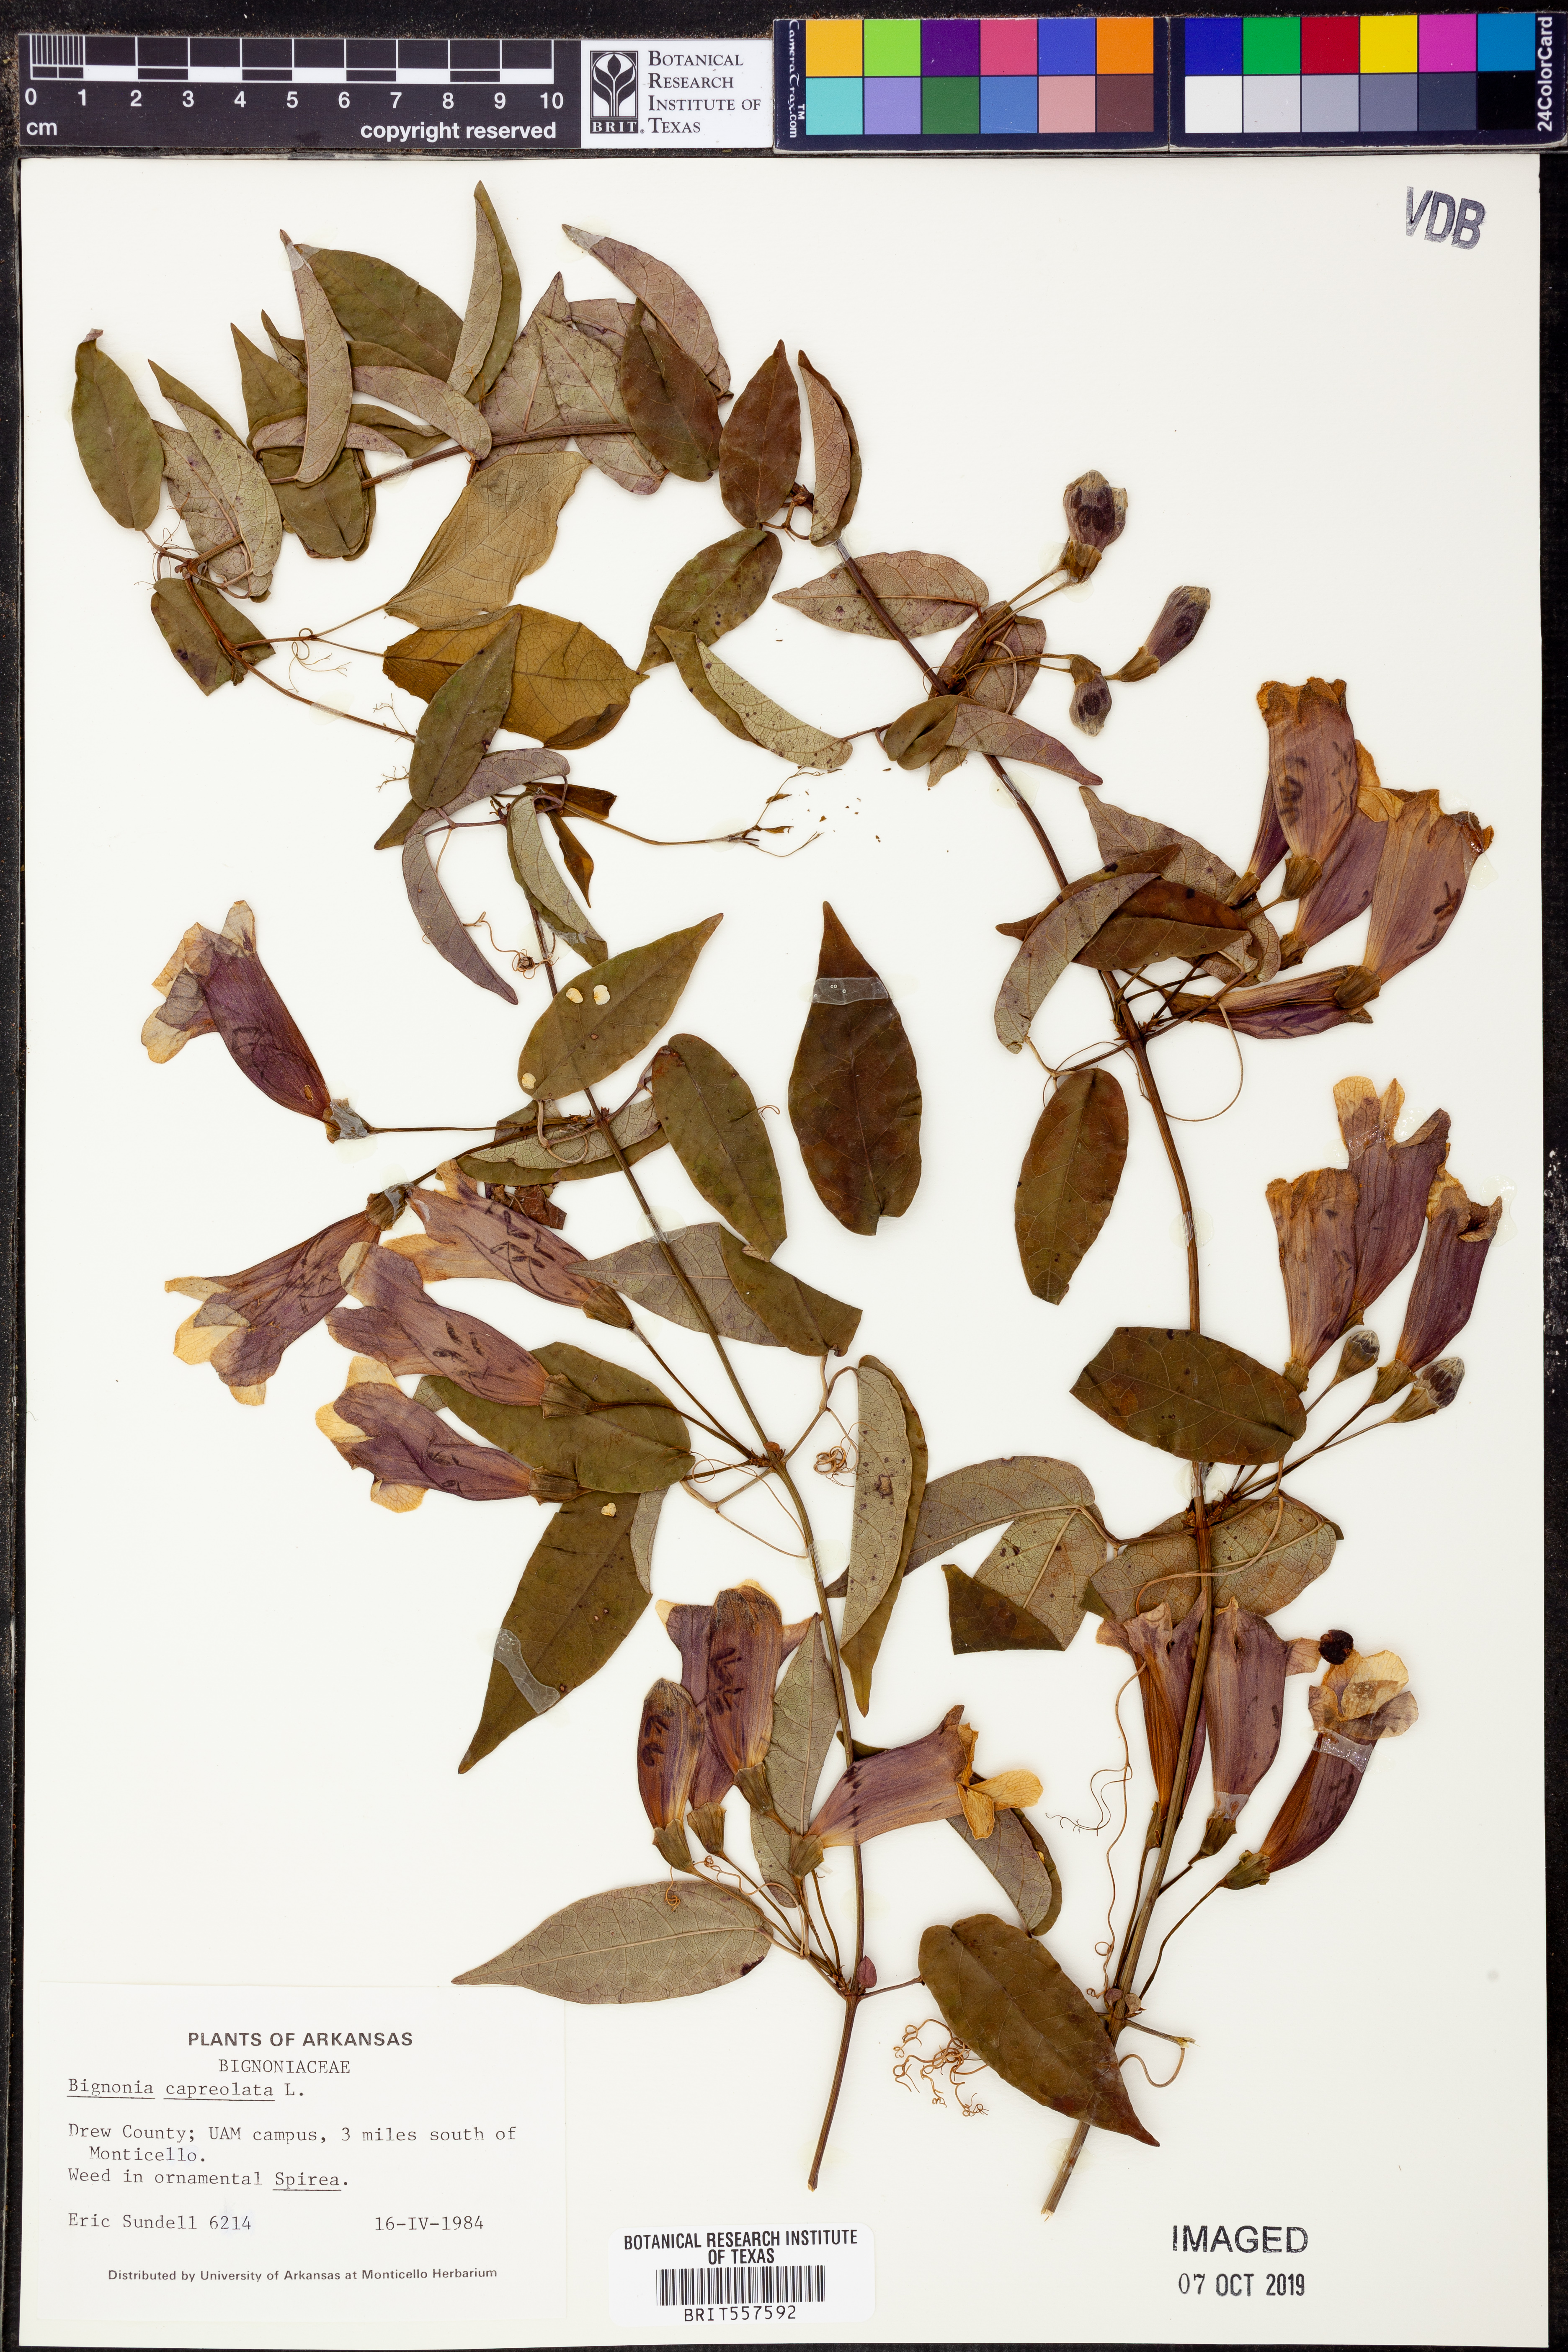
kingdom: Plantae
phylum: Tracheophyta
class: Magnoliopsida
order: Lamiales
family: Bignoniaceae
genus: Bignonia
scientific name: Bignonia capreolata
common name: Crossvine
